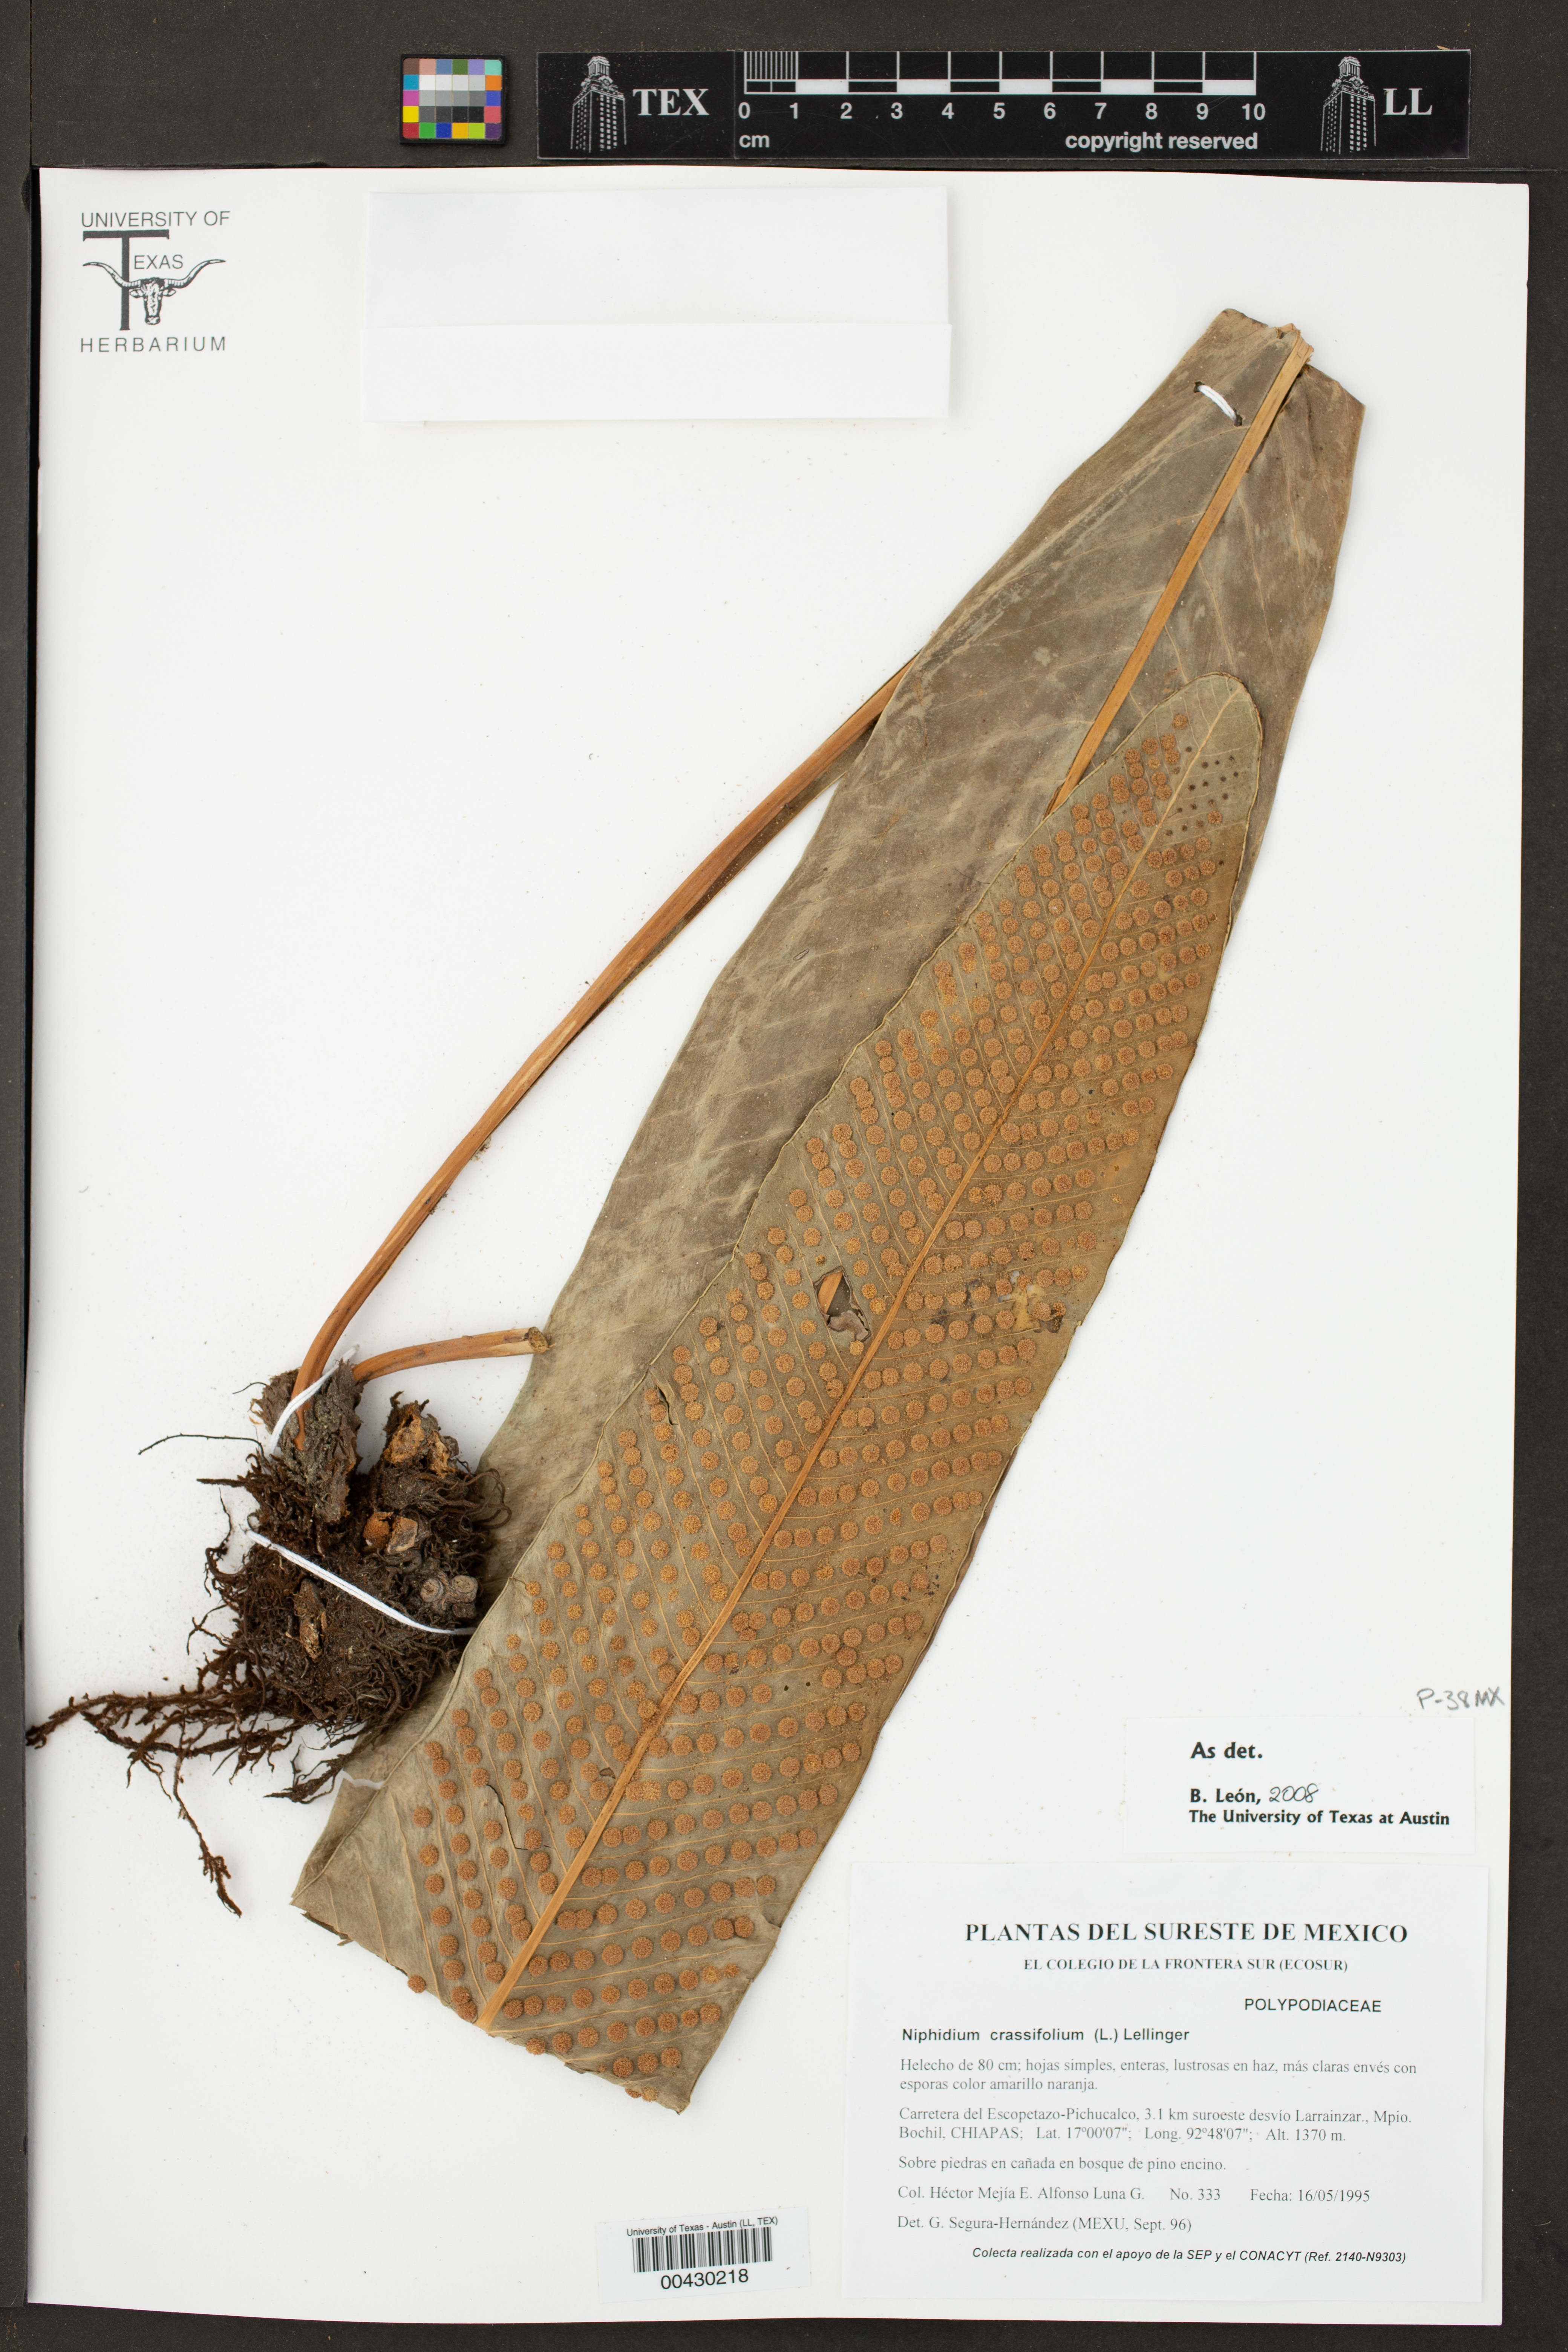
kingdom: Plantae
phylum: Tracheophyta
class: Polypodiopsida
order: Polypodiales
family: Polypodiaceae
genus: Niphidium
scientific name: Niphidium crassifolium
